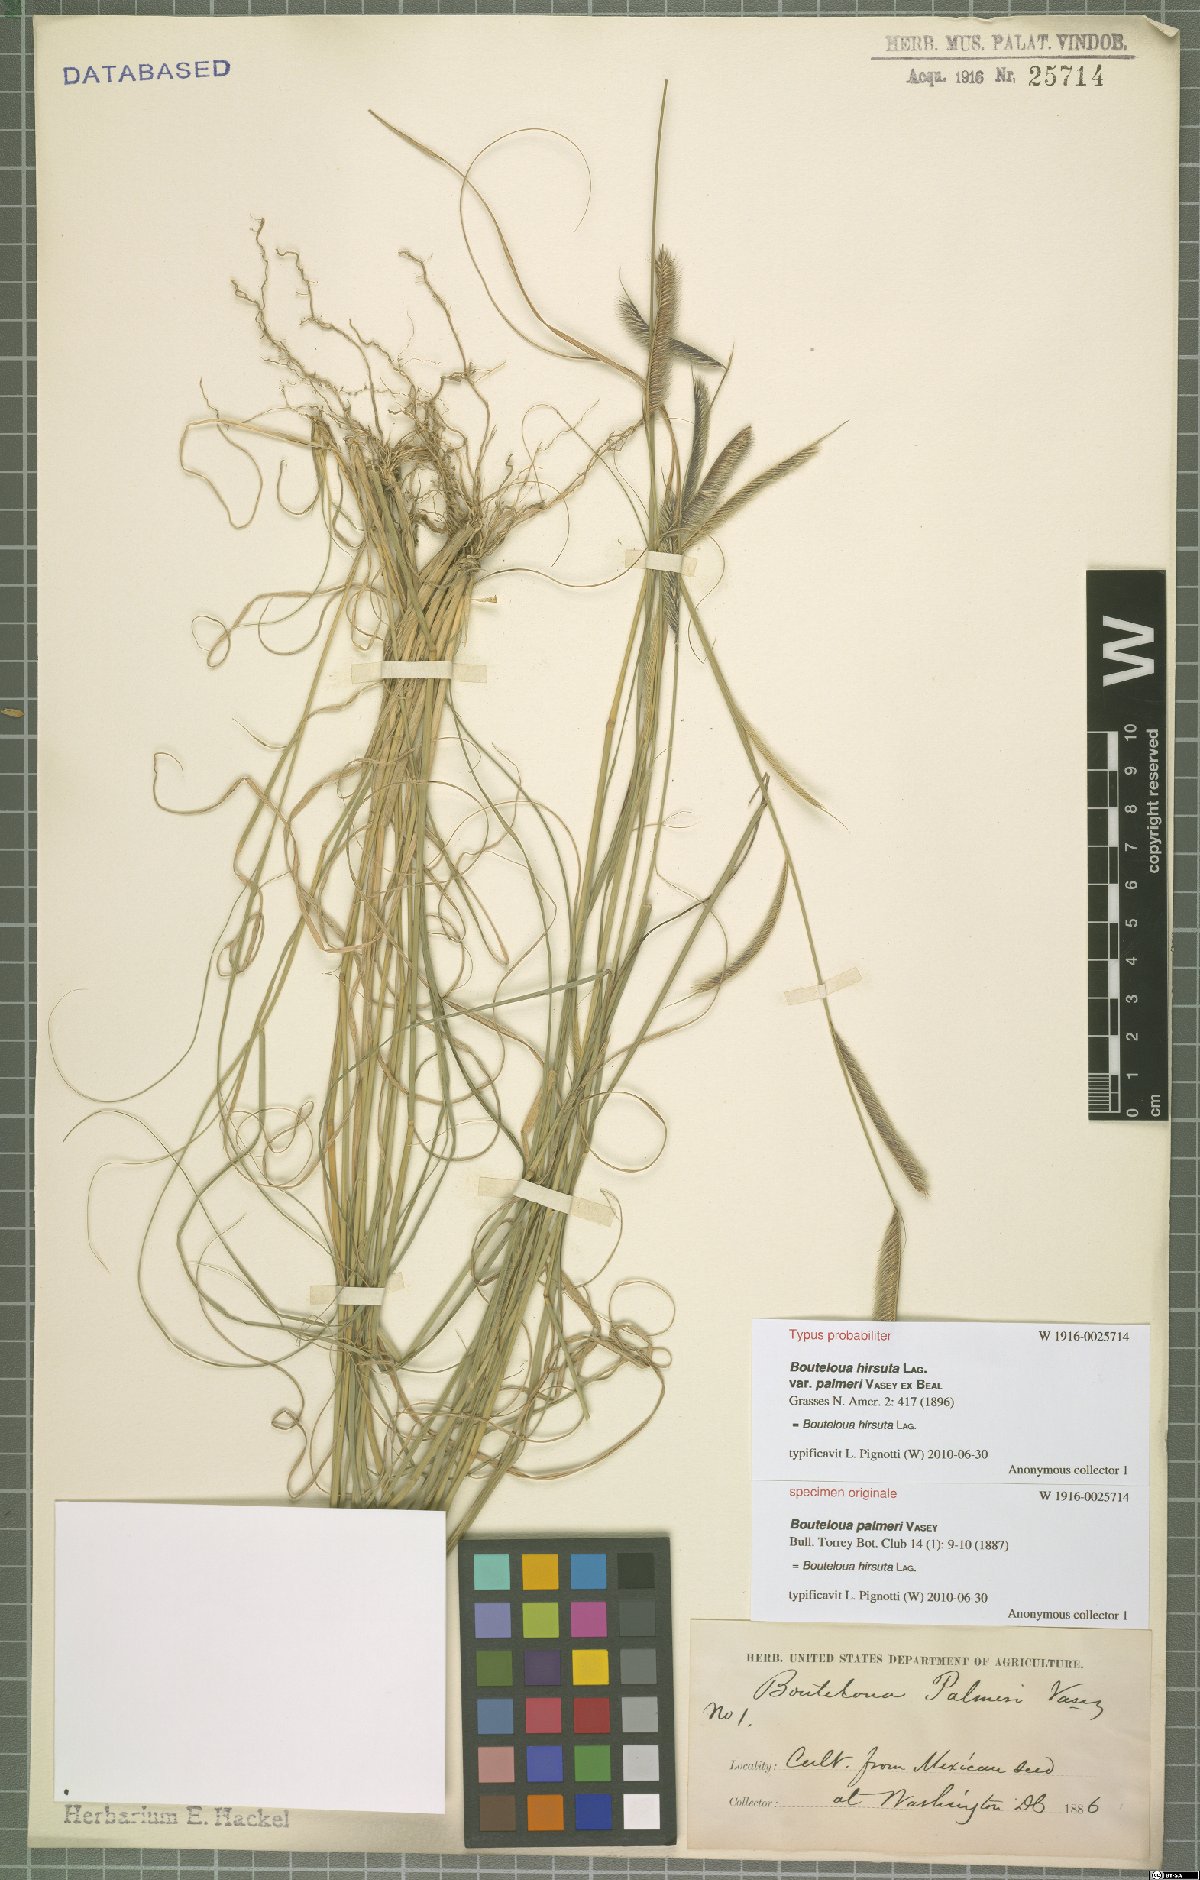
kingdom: Plantae
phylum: Tracheophyta
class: Liliopsida
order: Poales
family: Poaceae
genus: Bouteloua
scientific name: Bouteloua hirsuta
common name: Hairy grama
